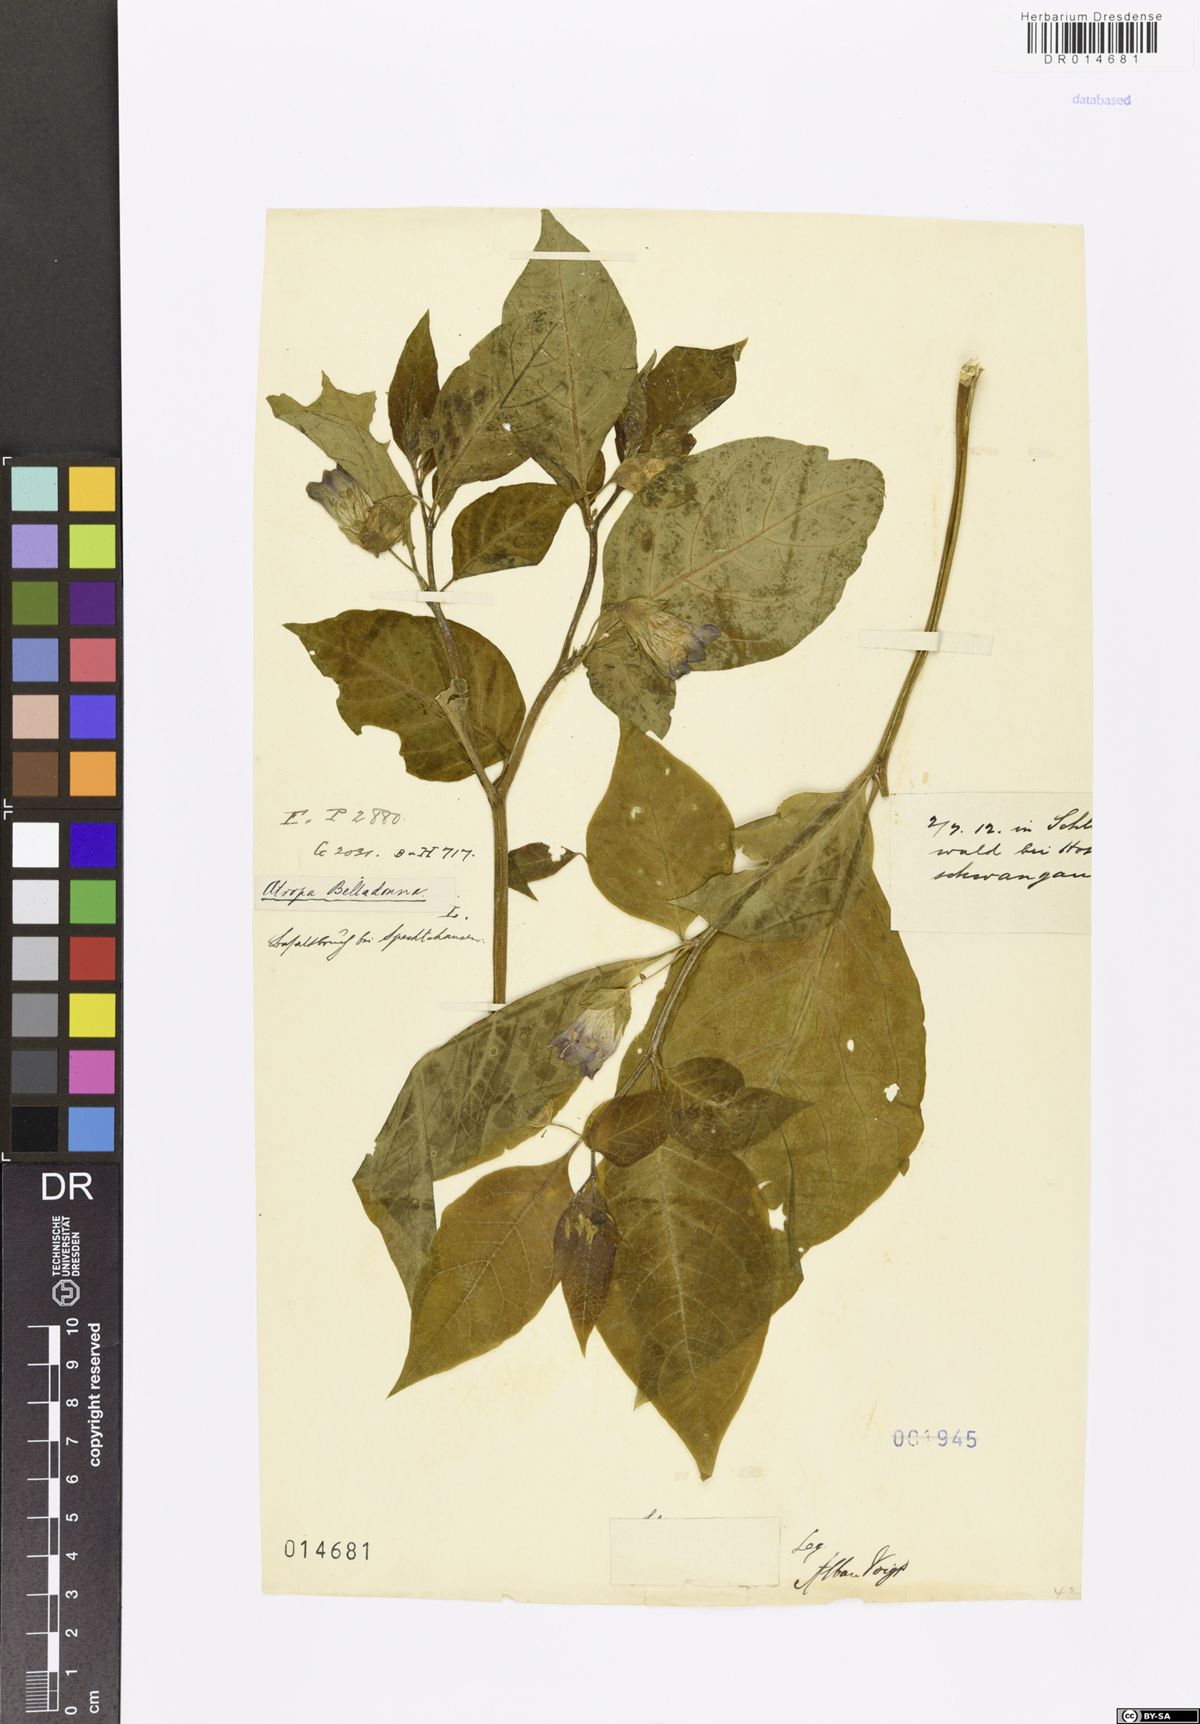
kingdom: Plantae
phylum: Tracheophyta
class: Magnoliopsida
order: Solanales
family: Solanaceae
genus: Atropa
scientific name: Atropa belladonna
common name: Deadly nightshade
